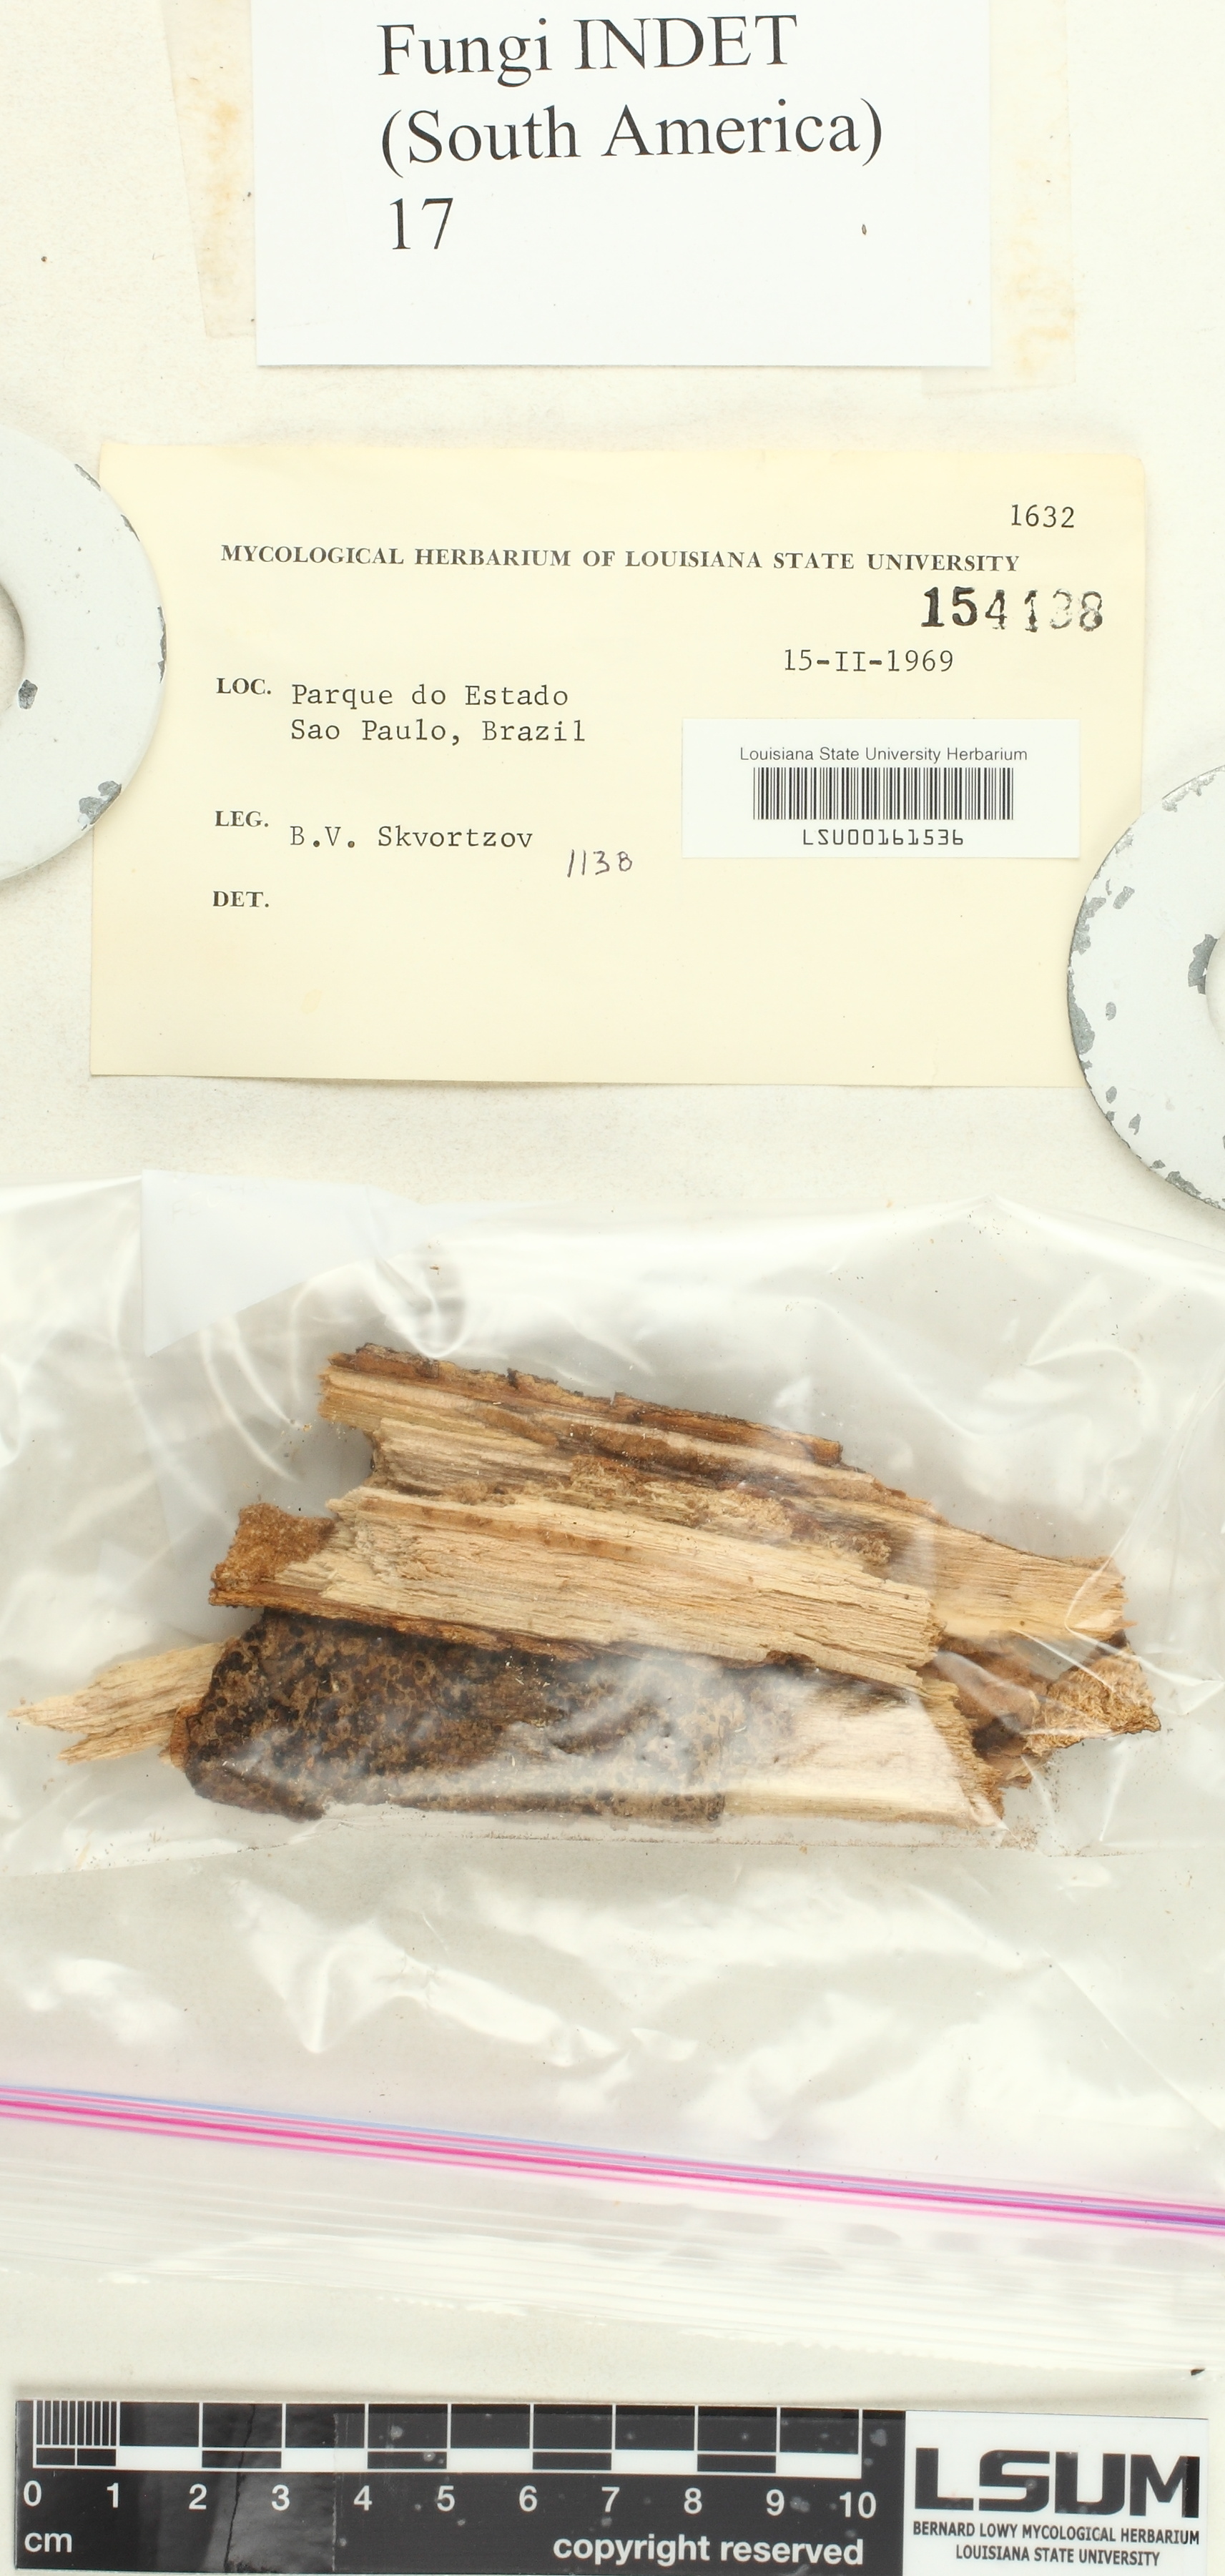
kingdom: Fungi
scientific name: Fungi
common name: Fungi
